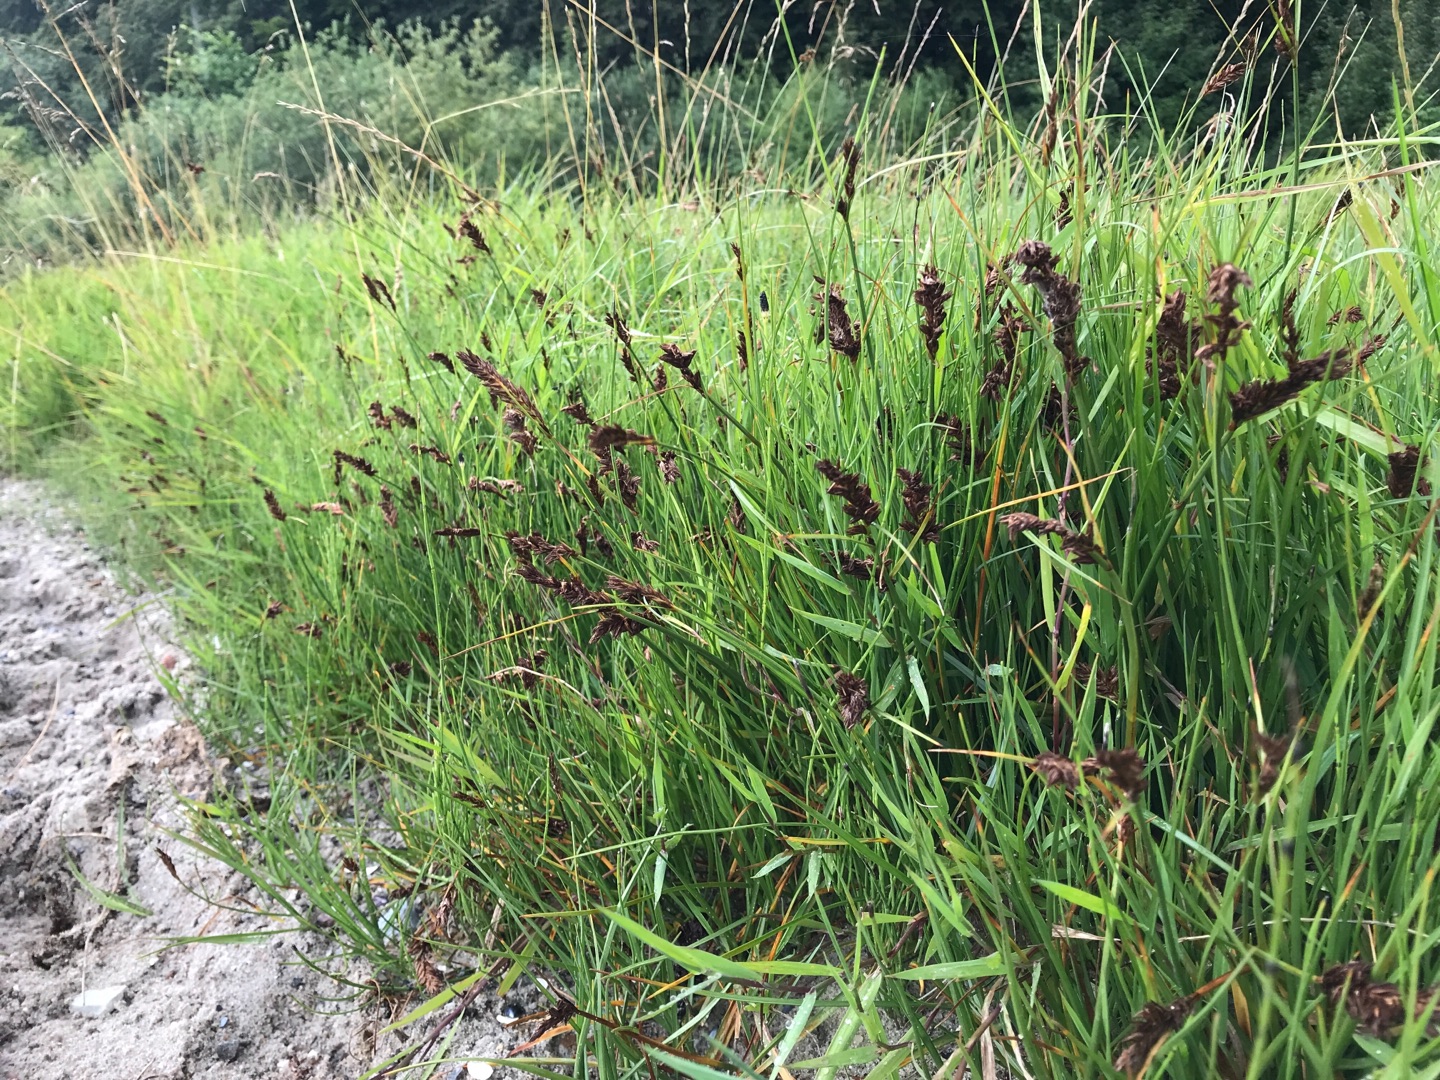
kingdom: Plantae
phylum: Tracheophyta
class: Liliopsida
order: Poales
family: Cyperaceae
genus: Blysmus
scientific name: Blysmus compressus
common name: Fladtrykt kogleaks
